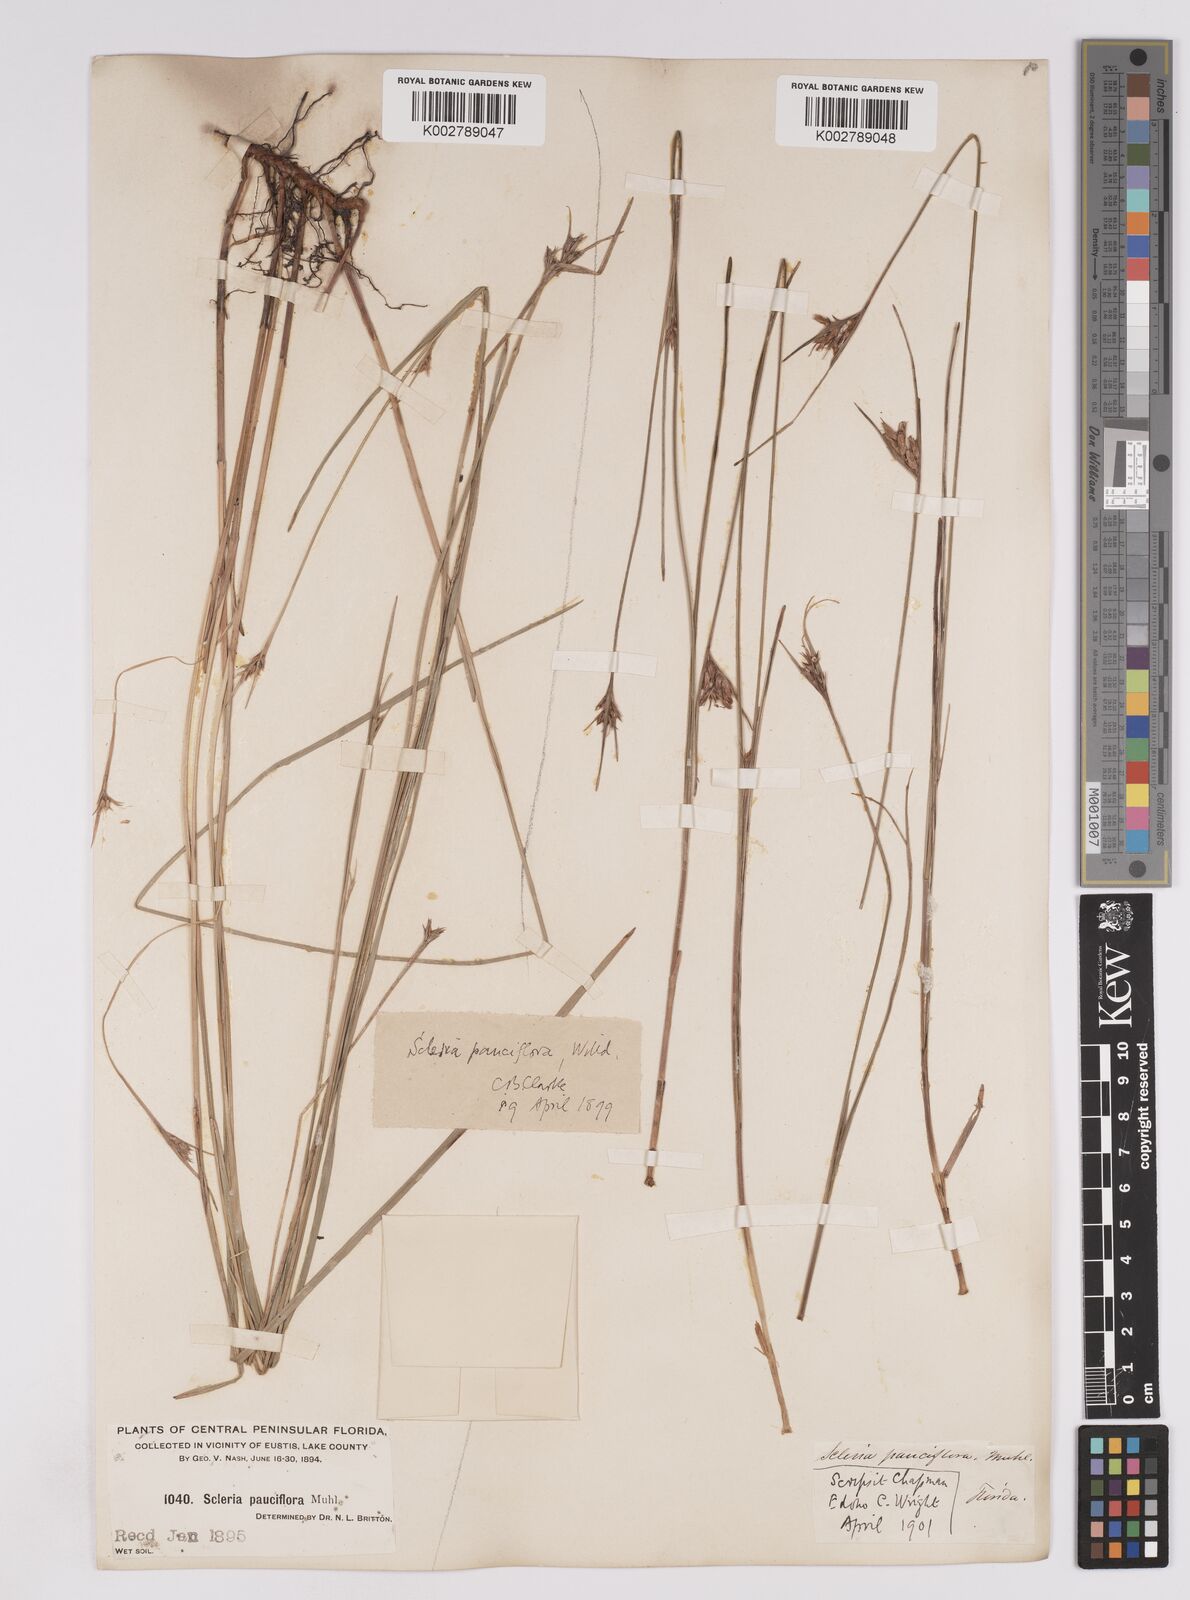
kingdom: Plantae
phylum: Tracheophyta
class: Liliopsida
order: Poales
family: Cyperaceae
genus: Scleria
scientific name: Scleria pauciflora
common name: Few-flowered nutrush
